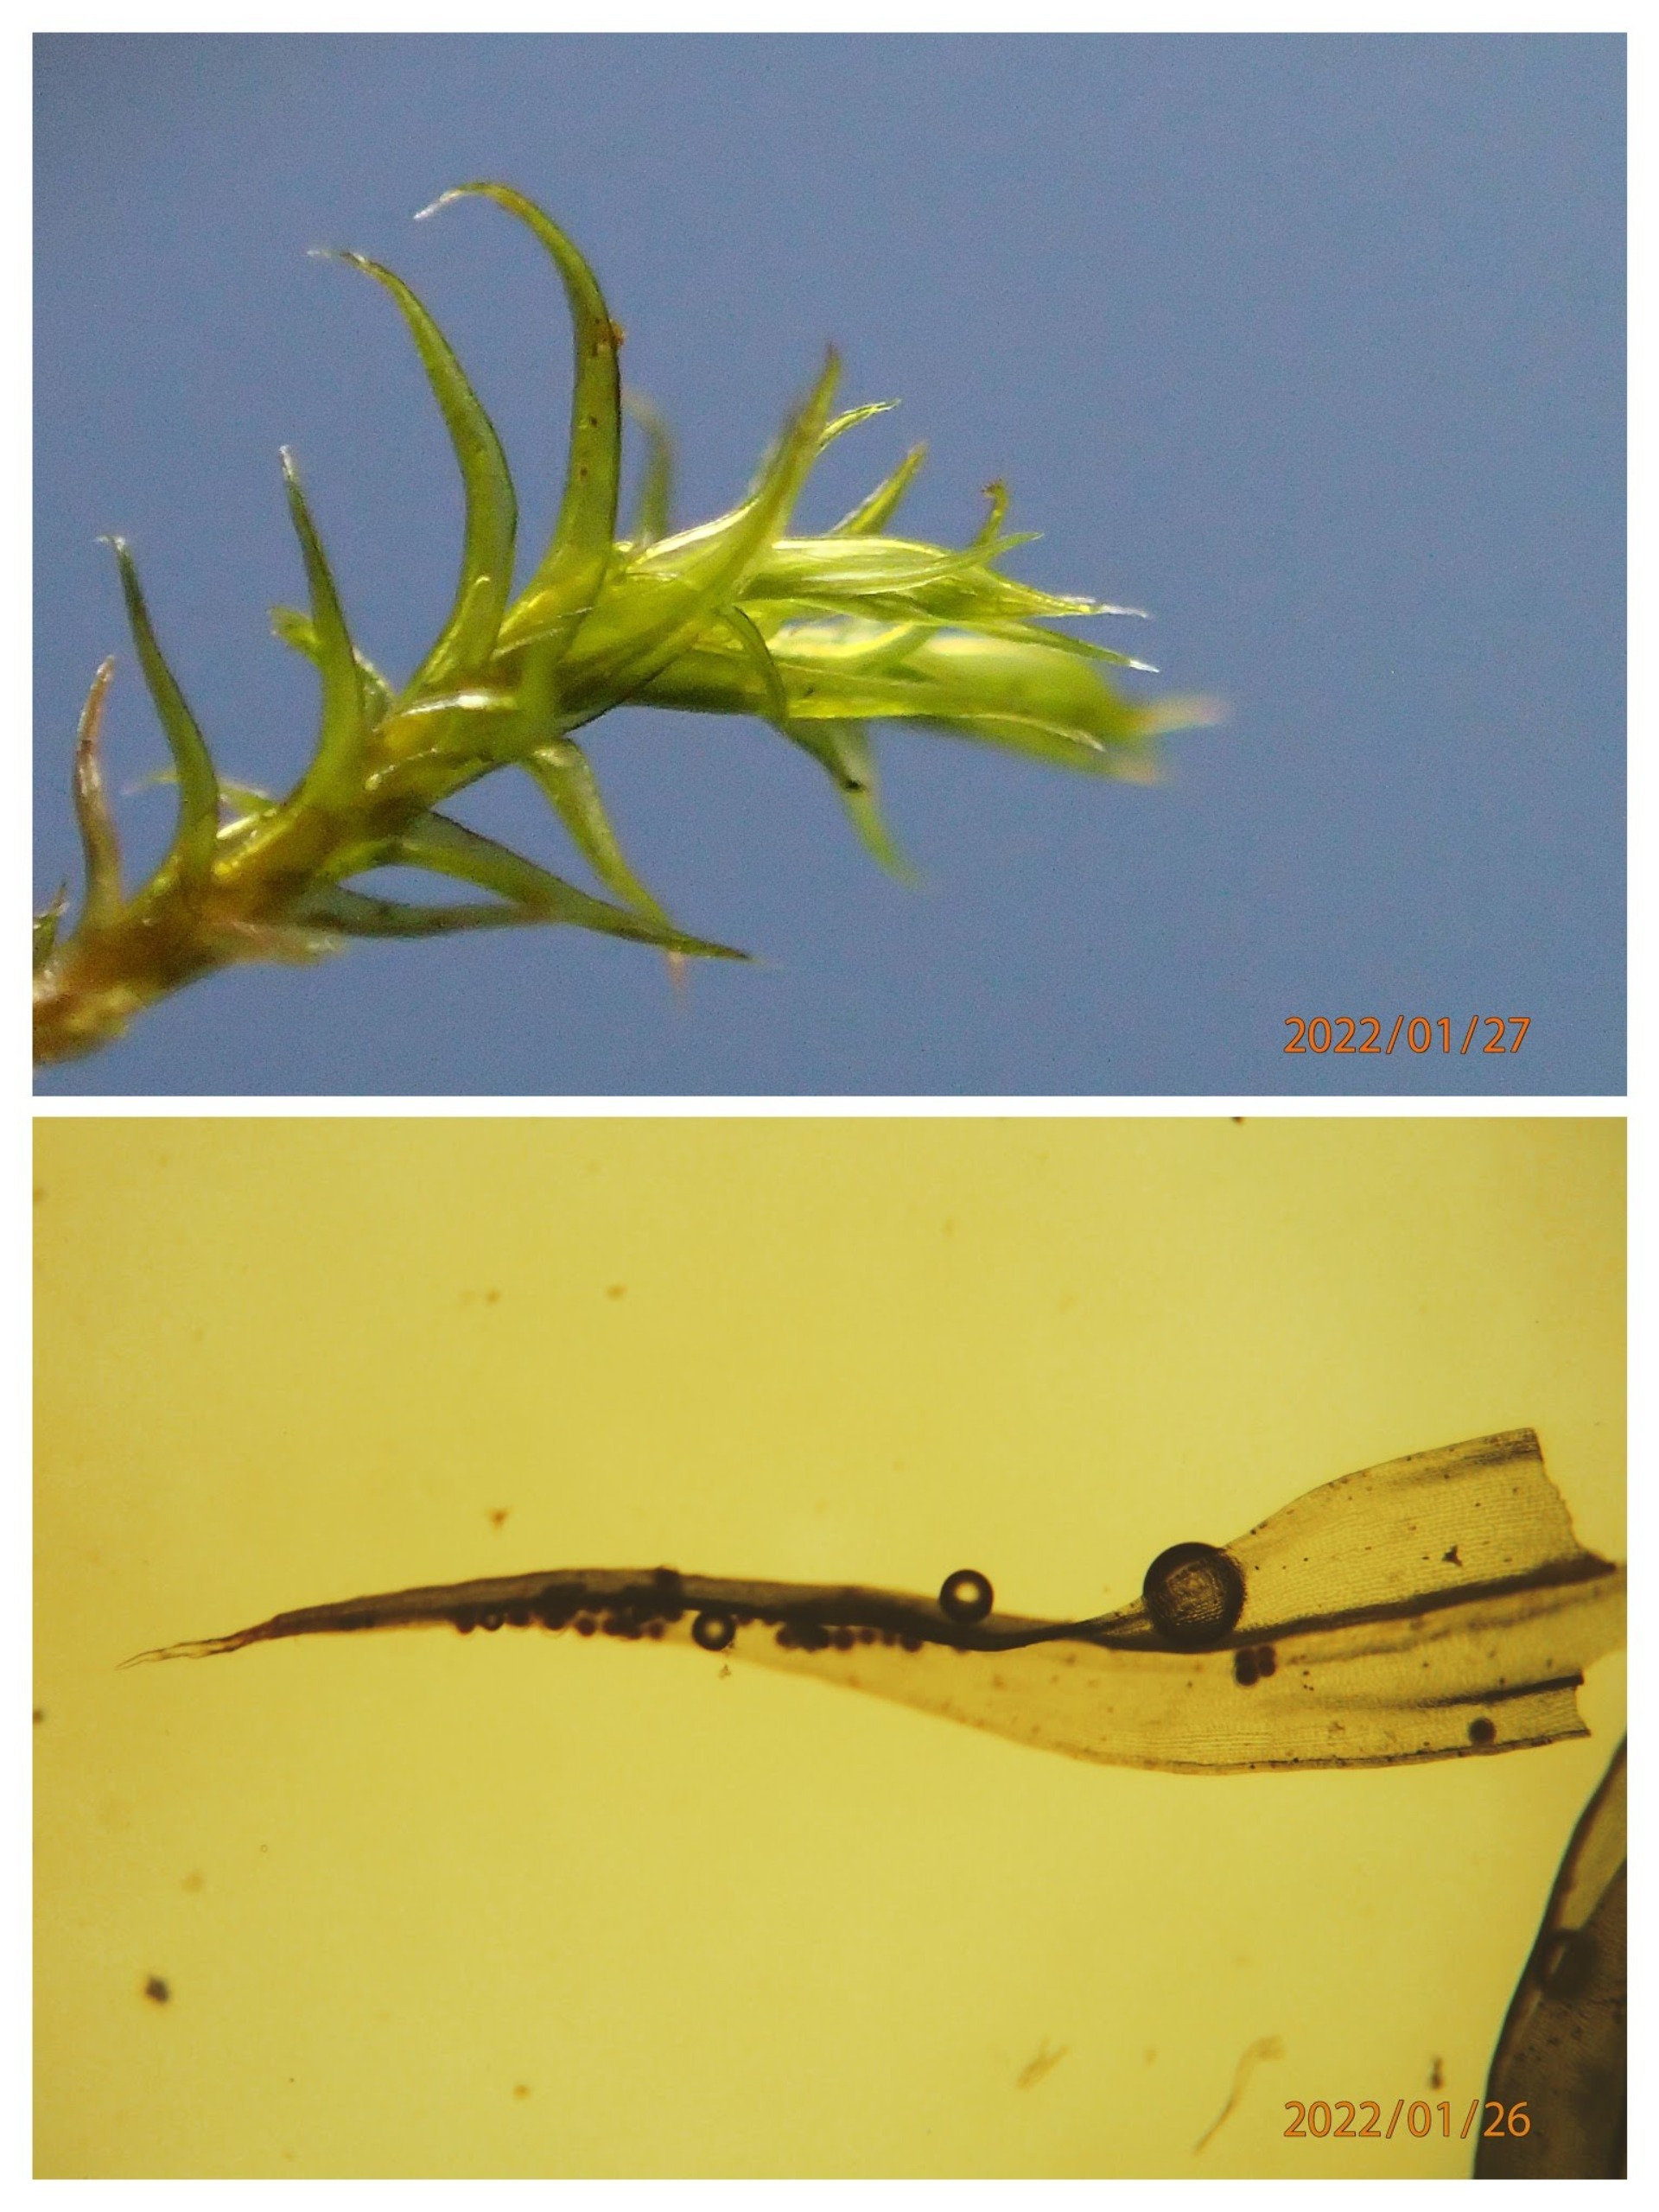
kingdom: Plantae
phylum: Bryophyta
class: Bryopsida
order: Grimmiales
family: Grimmiaceae
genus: Grimmia
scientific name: Grimmia hartmanii
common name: Hartmans gråmos
